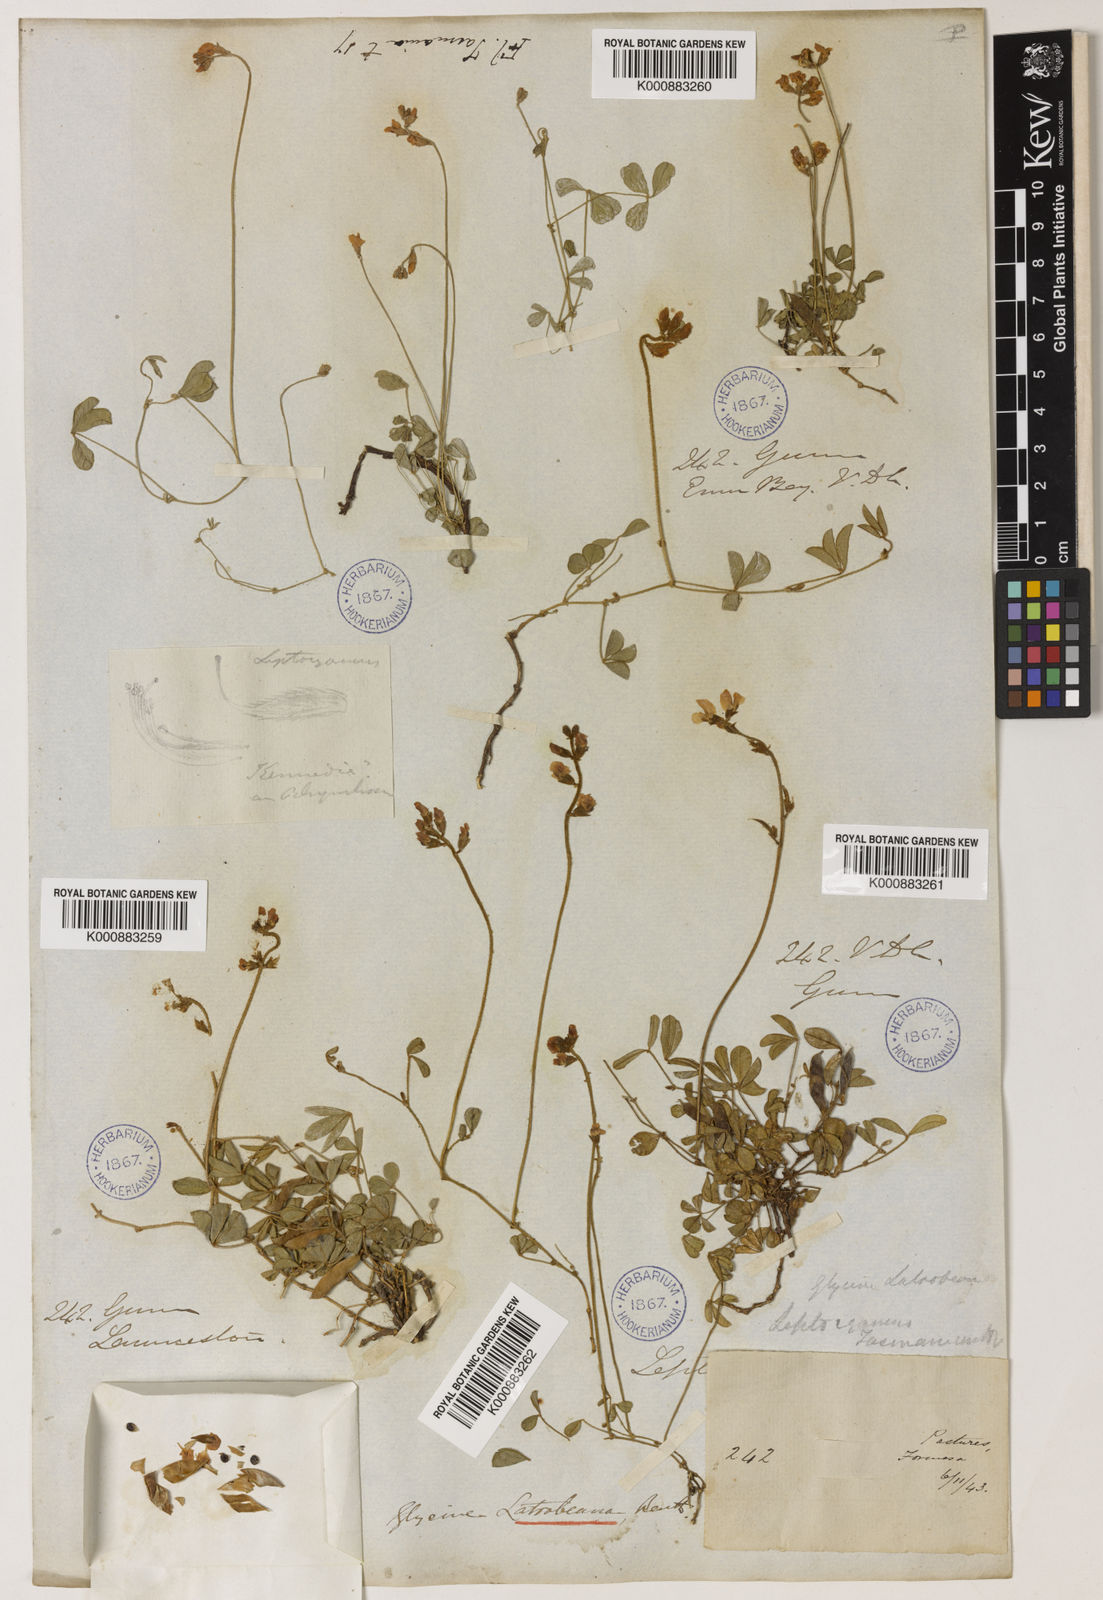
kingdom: Plantae
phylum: Tracheophyta
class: Magnoliopsida
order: Fabales
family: Fabaceae
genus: Glycine
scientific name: Glycine latrobeana
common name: Clover glycine
